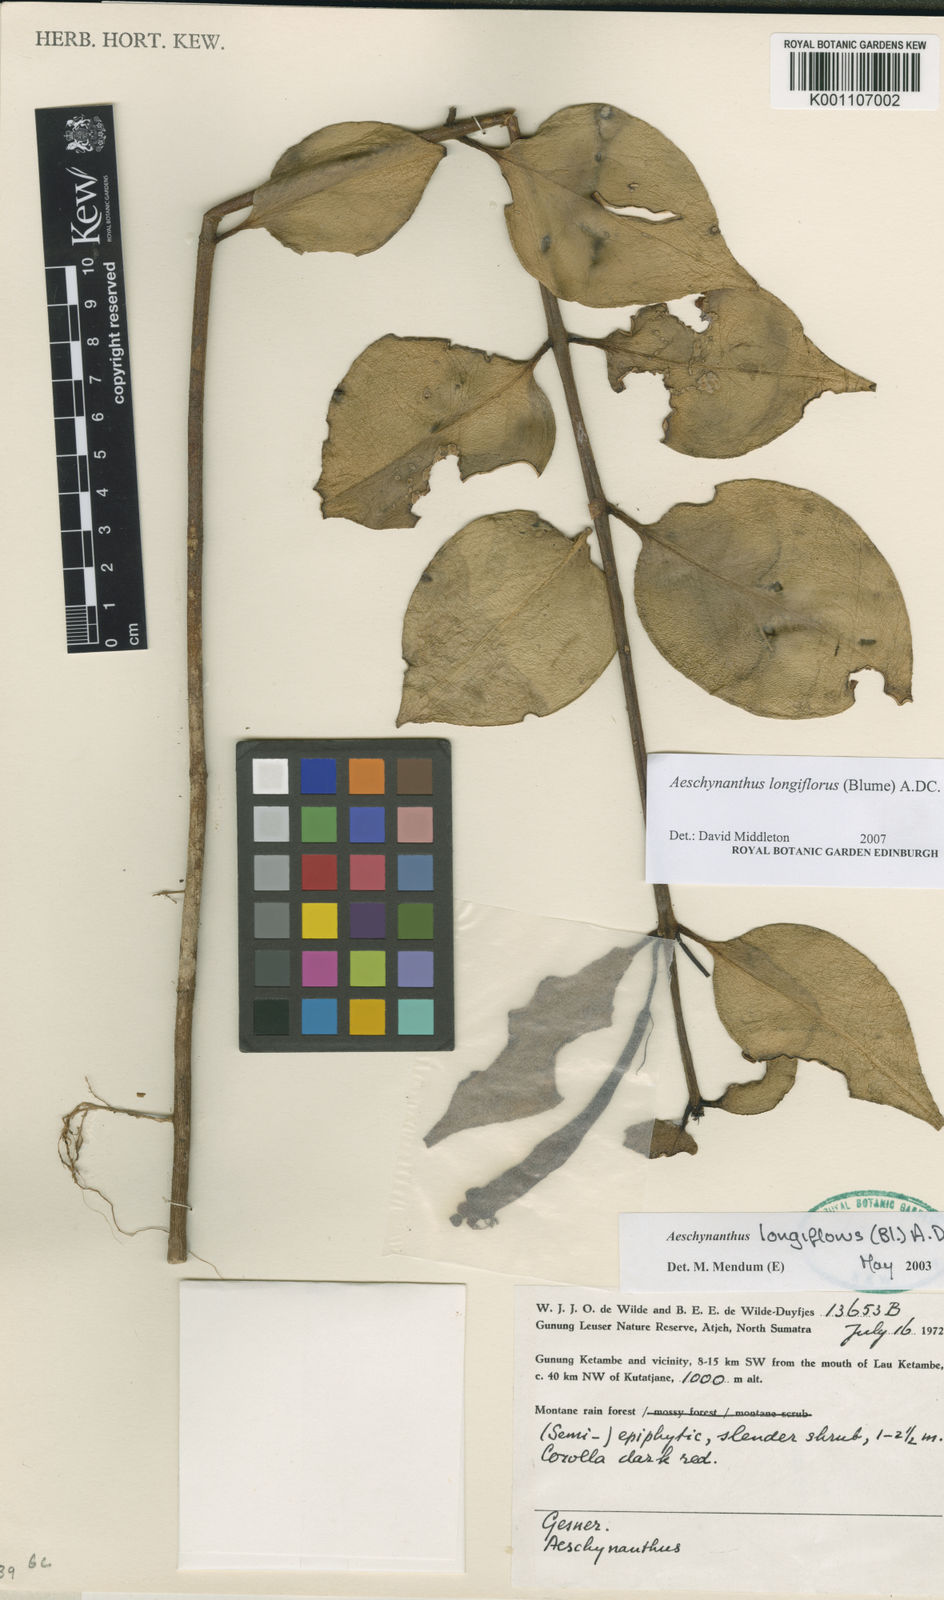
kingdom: Plantae
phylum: Tracheophyta
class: Magnoliopsida
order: Lamiales
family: Gesneriaceae
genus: Aeschynanthus
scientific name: Aeschynanthus longicaulis
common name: Zebra basketvine
